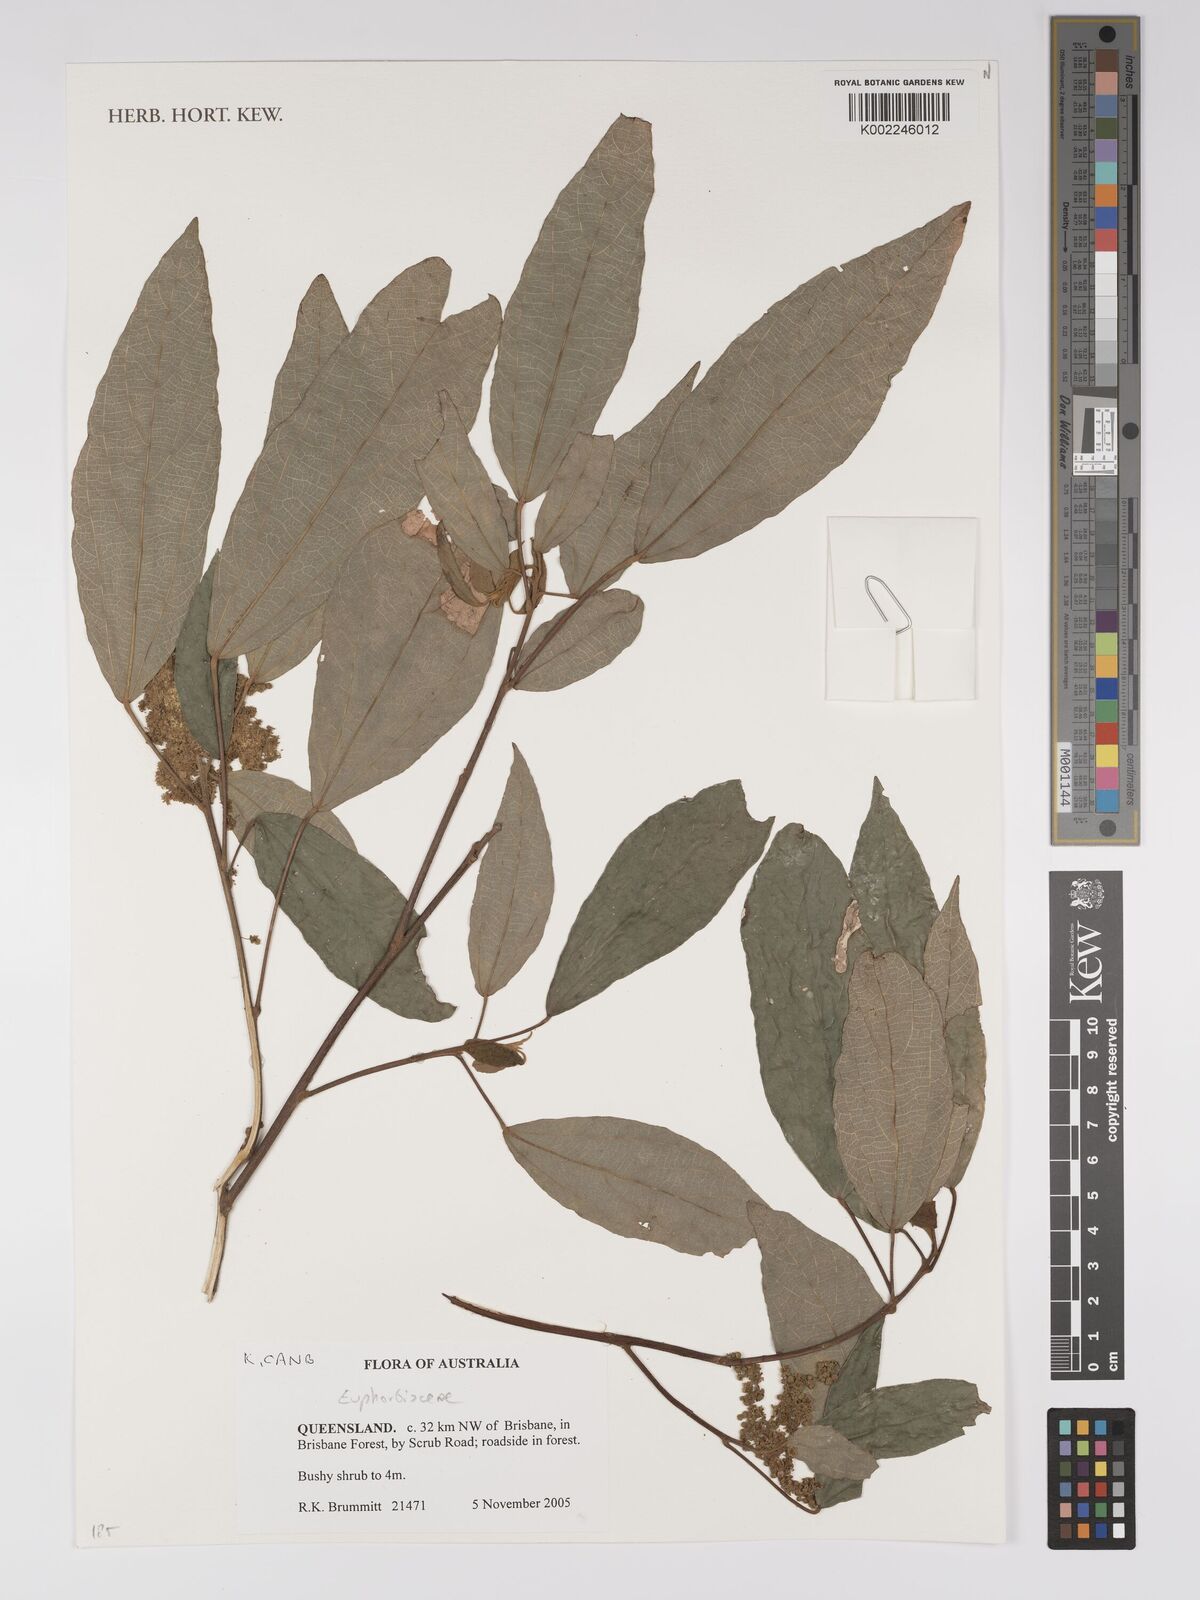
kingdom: Plantae
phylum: Tracheophyta
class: Magnoliopsida
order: Malpighiales
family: Euphorbiaceae
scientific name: Euphorbiaceae
